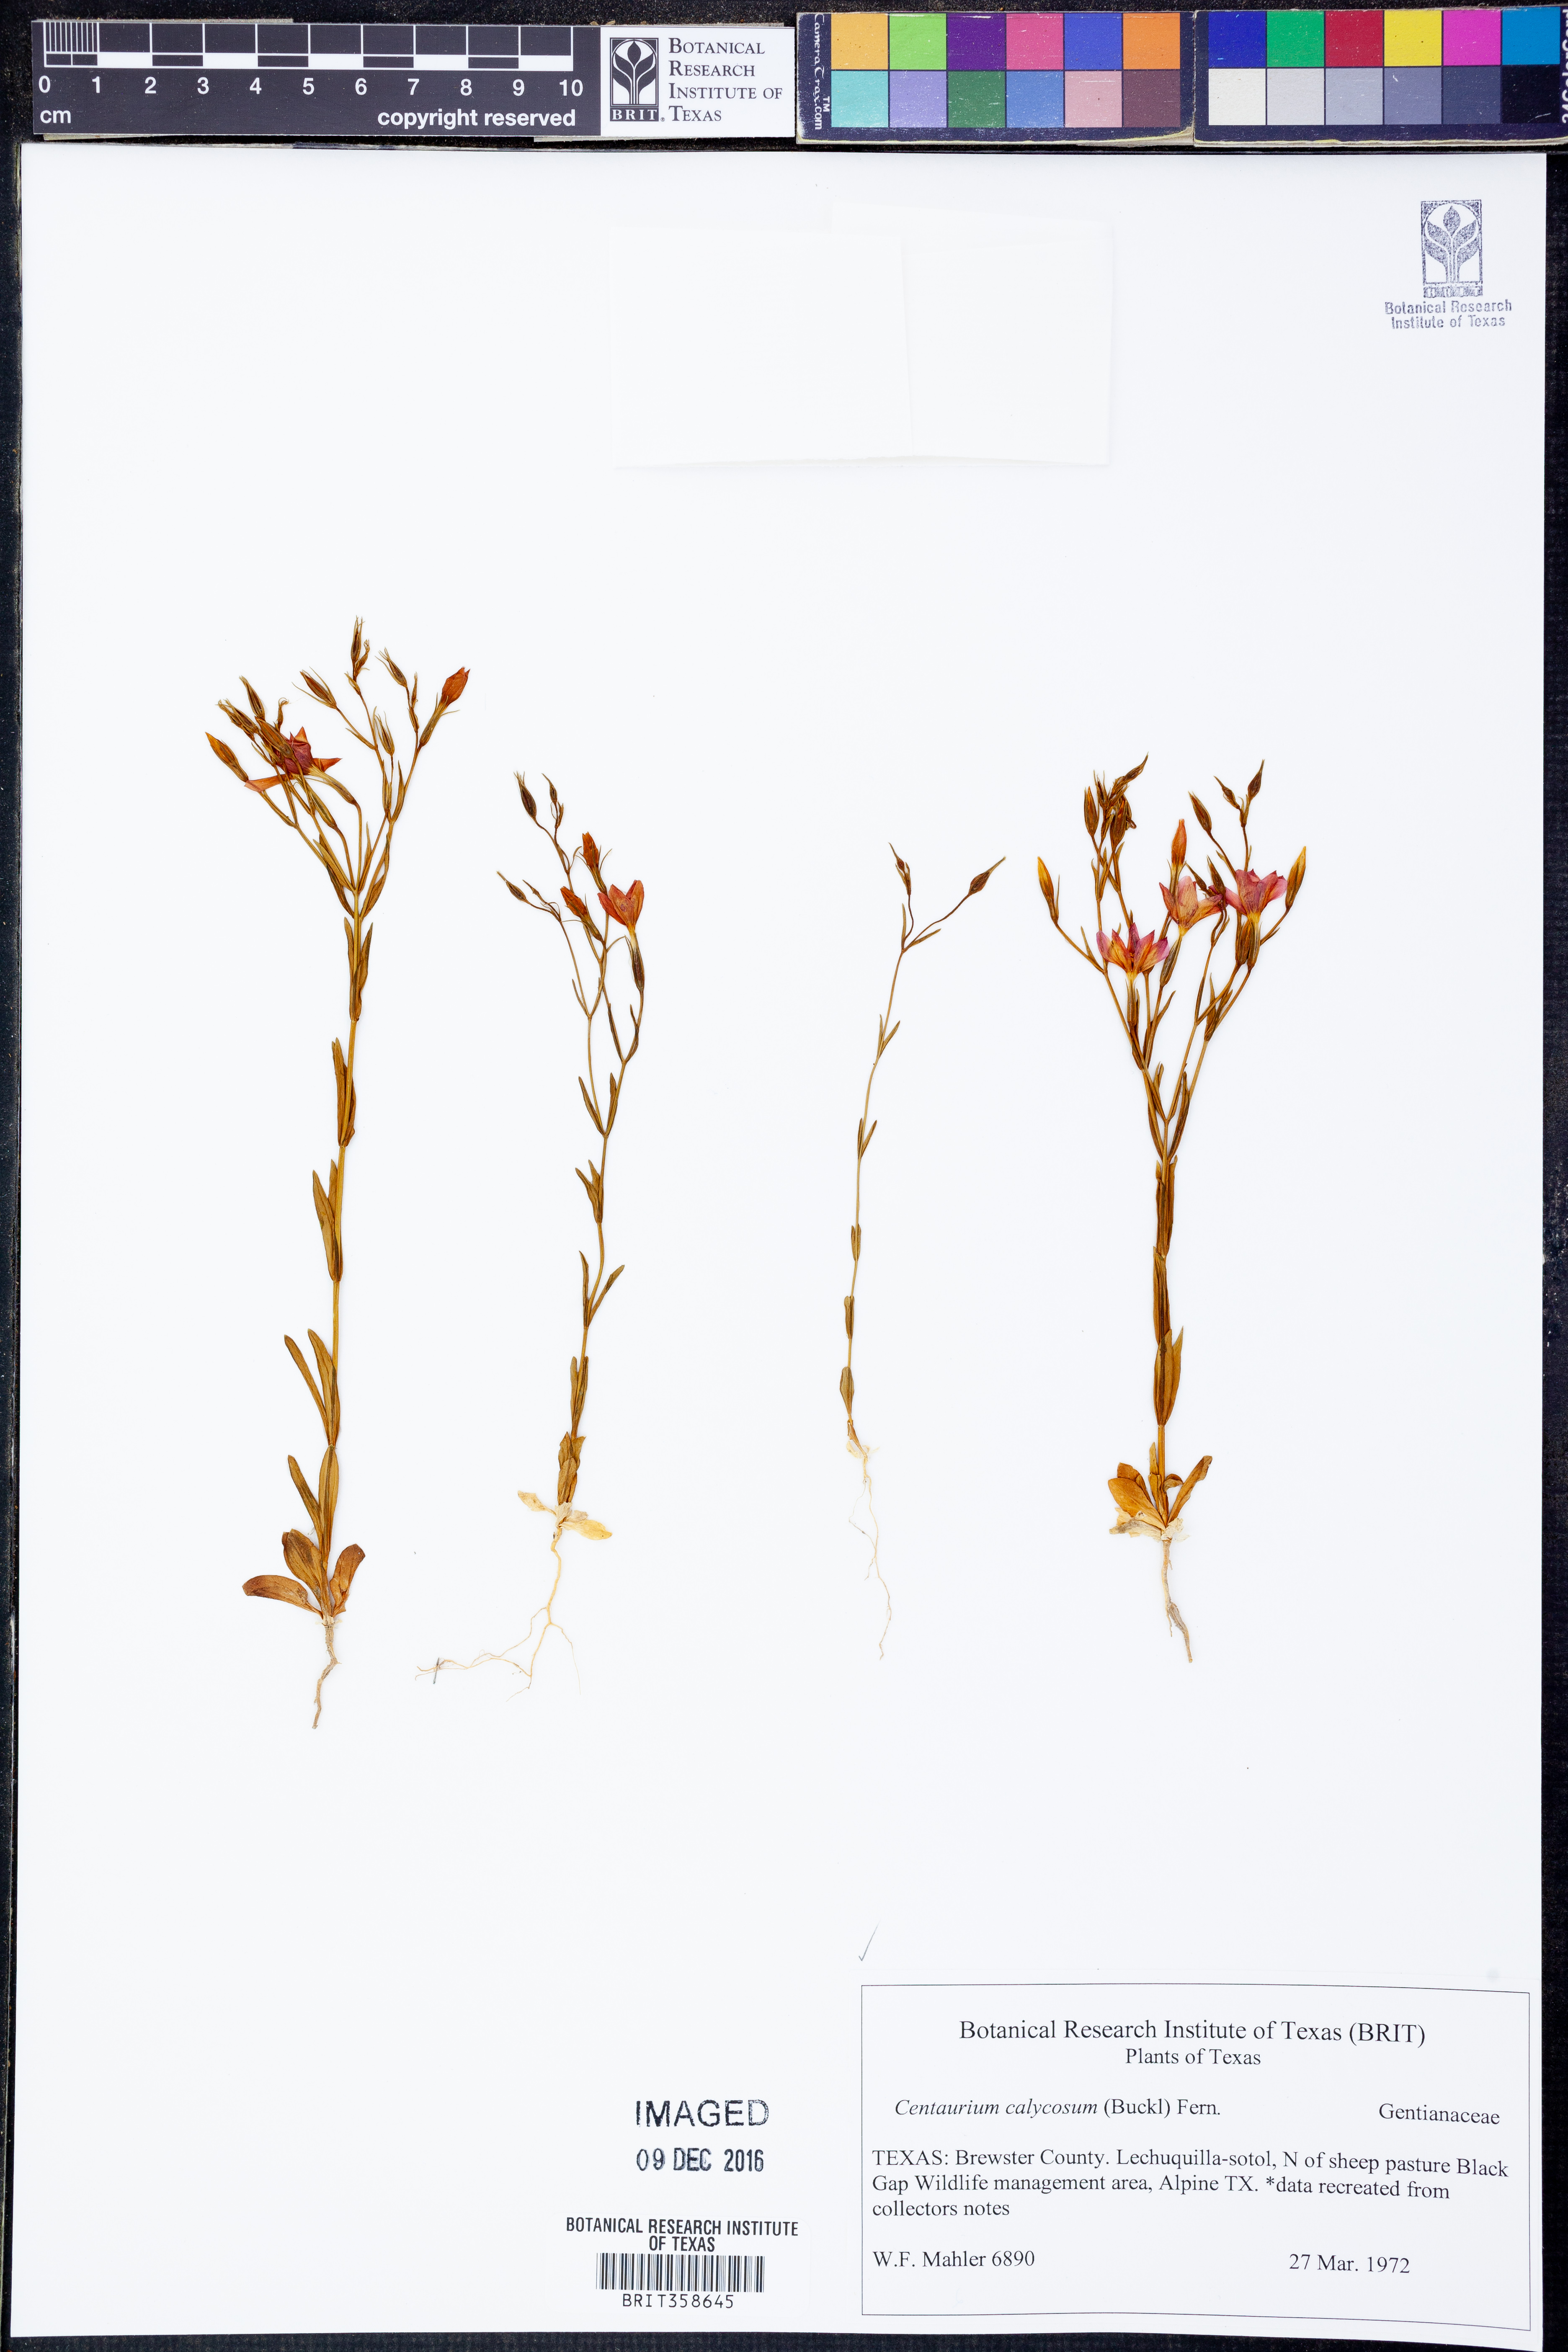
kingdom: Plantae
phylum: Tracheophyta
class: Magnoliopsida
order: Gentianales
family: Gentianaceae
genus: Zeltnera
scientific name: Zeltnera calycosa
